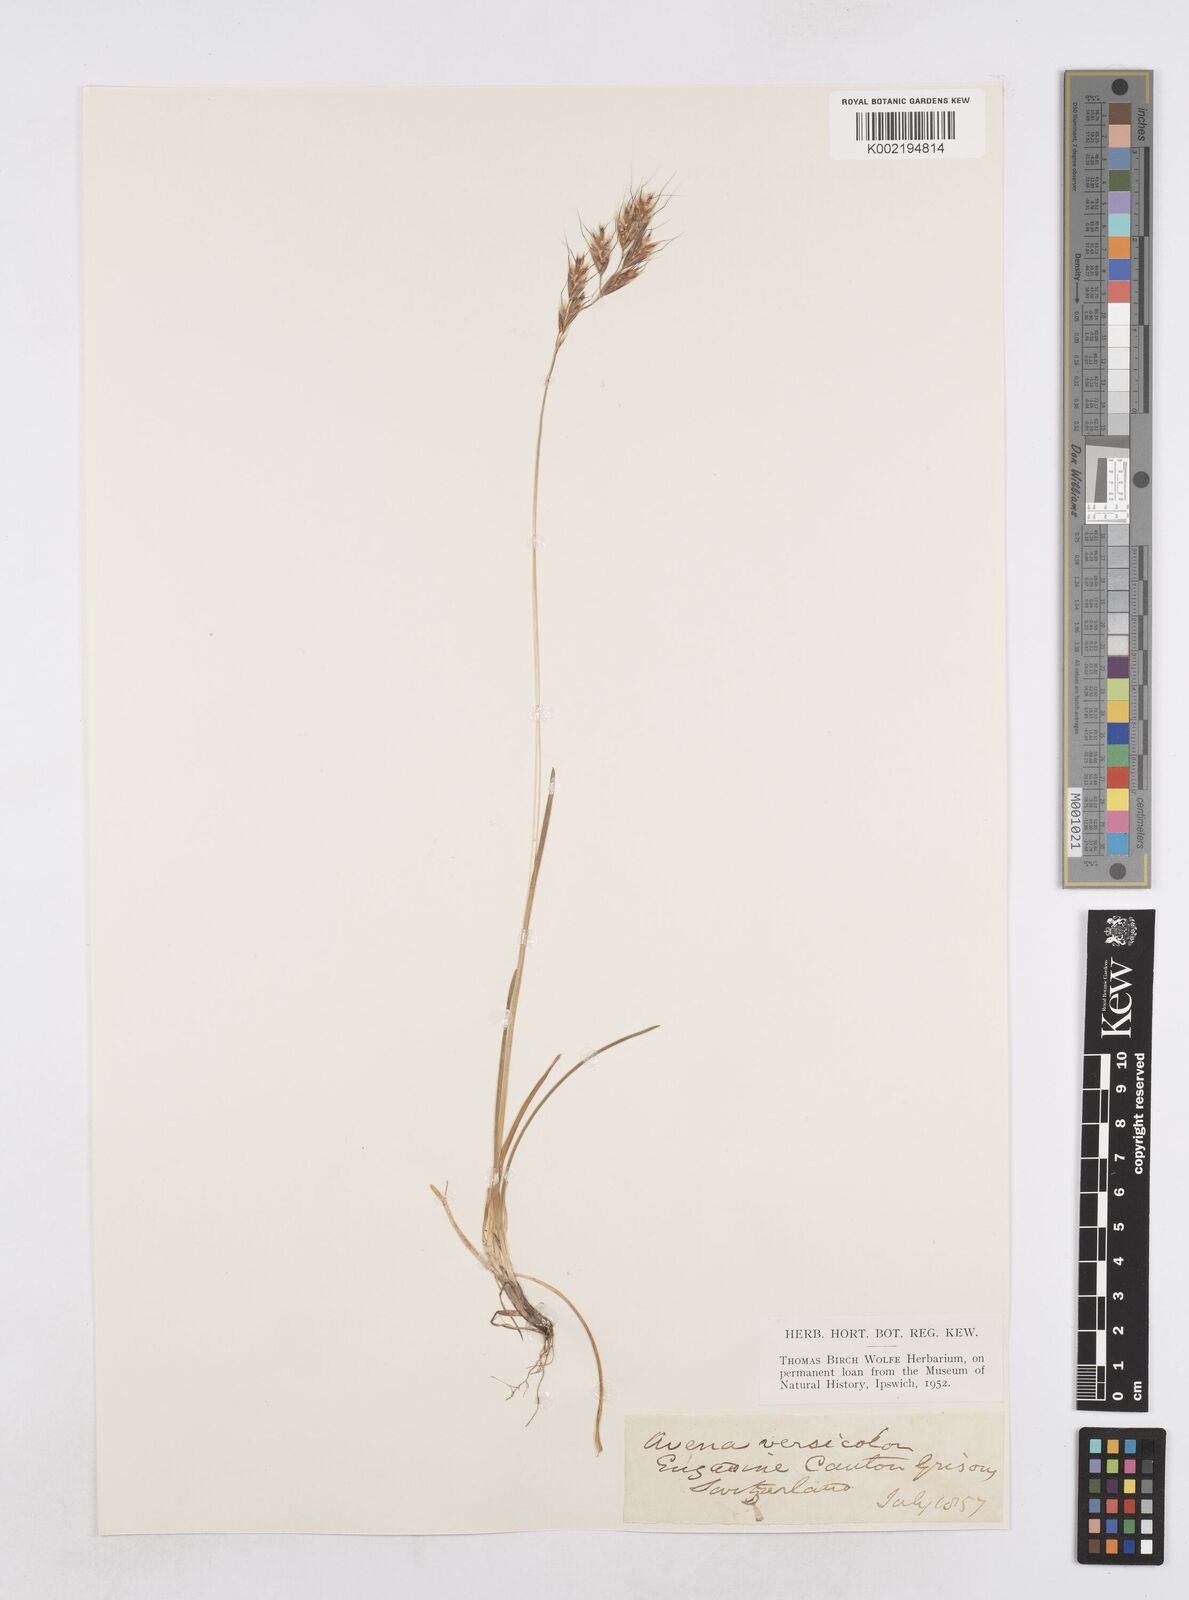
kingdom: Plantae
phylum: Tracheophyta
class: Liliopsida
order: Poales
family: Poaceae
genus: Helictochloa
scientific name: Helictochloa versicolor
